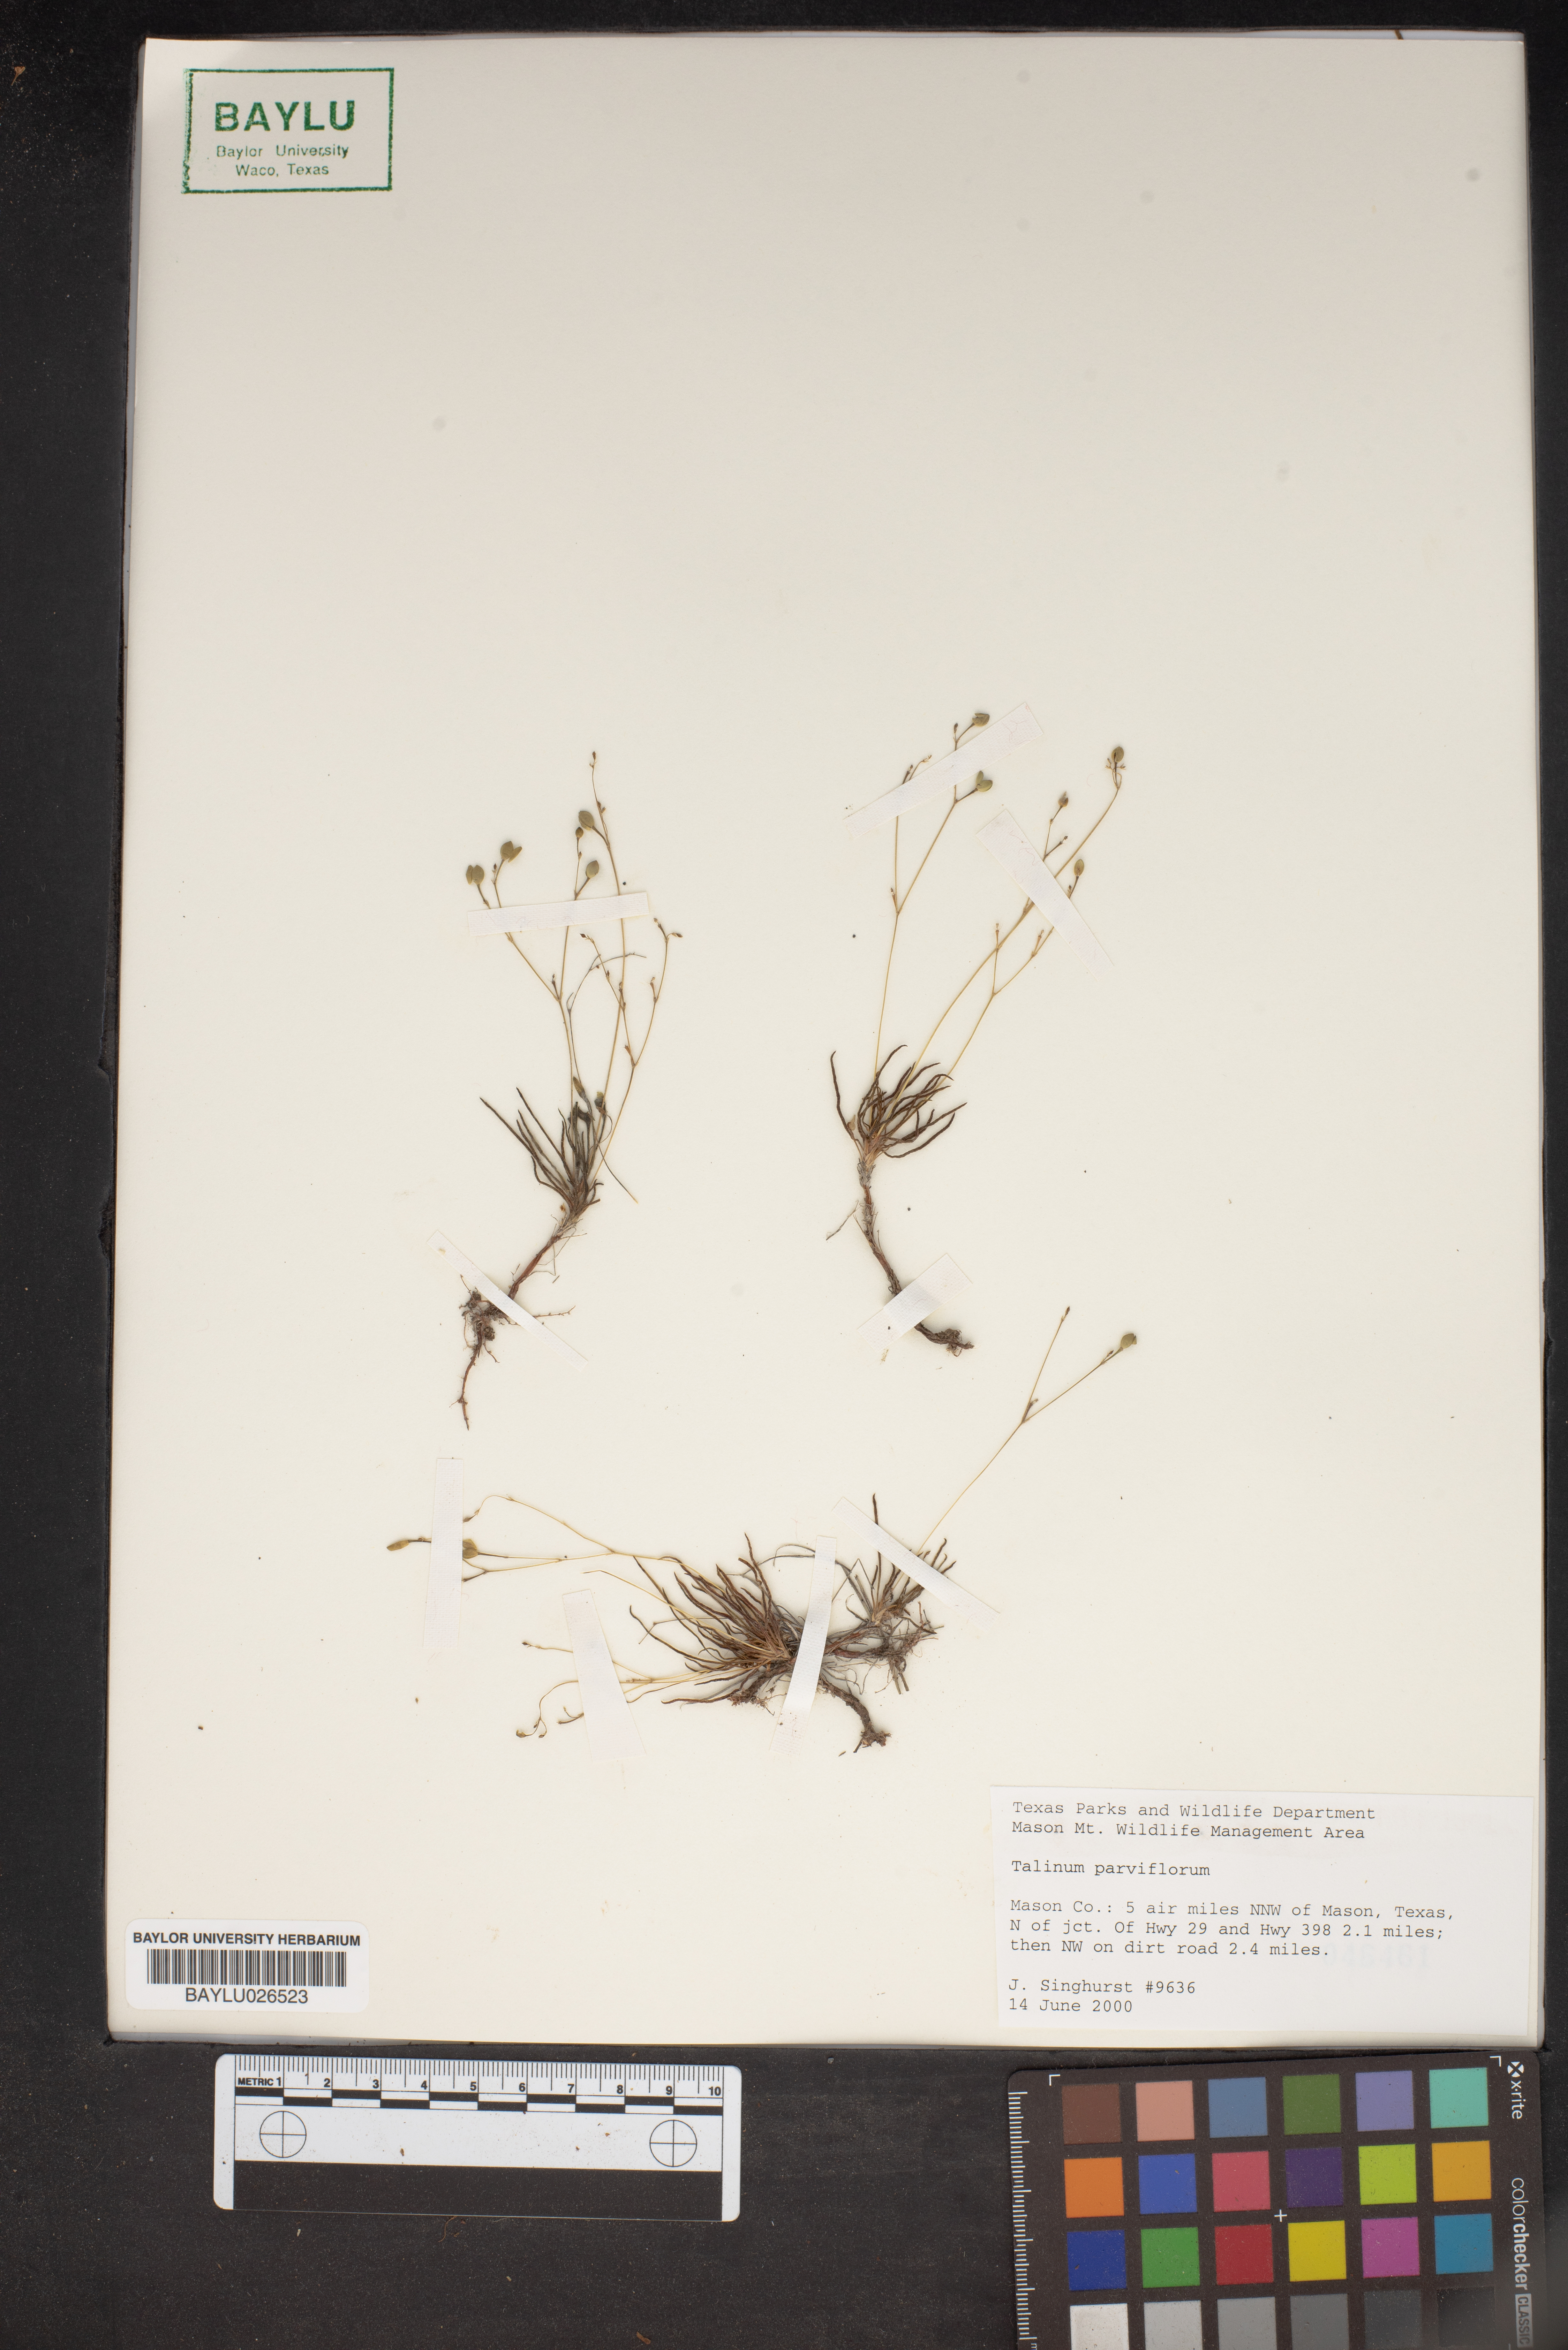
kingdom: Plantae
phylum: Tracheophyta
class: Magnoliopsida
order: Caryophyllales
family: Montiaceae
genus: Phemeranthus
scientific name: Phemeranthus parviflorus
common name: Sunbright
